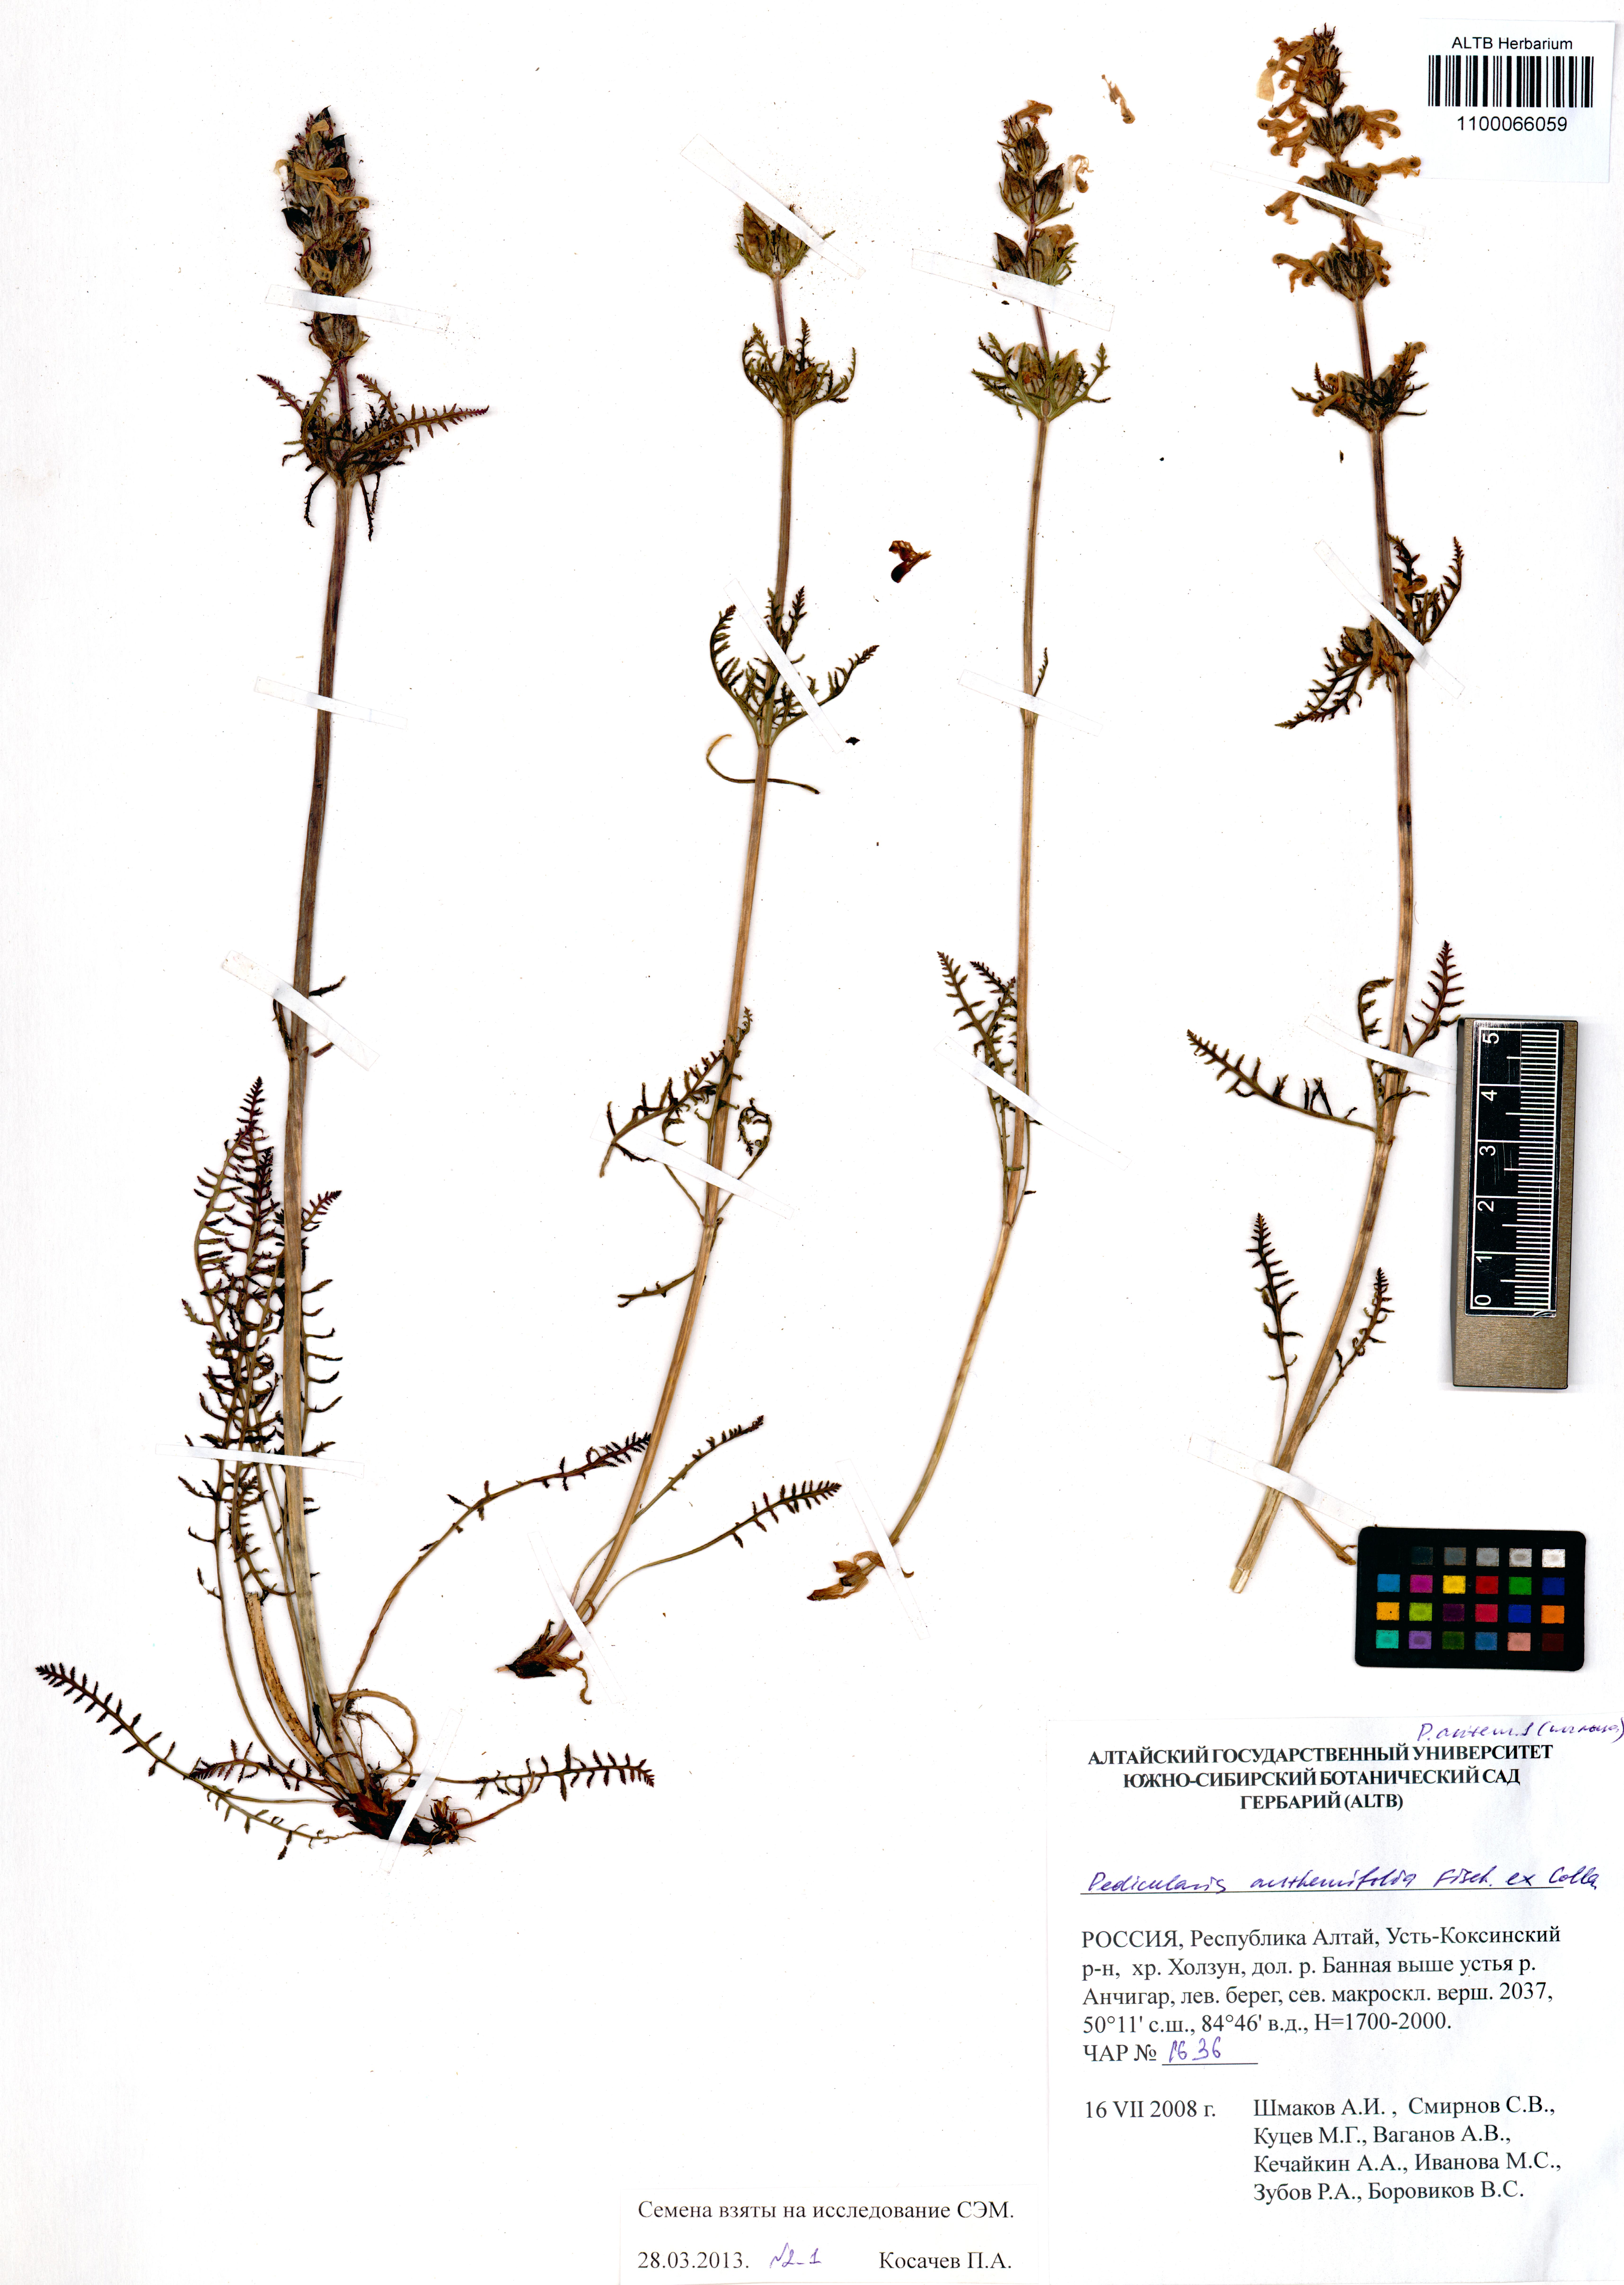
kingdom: Plantae
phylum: Tracheophyta
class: Magnoliopsida
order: Lamiales
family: Orobanchaceae
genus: Pedicularis
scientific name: Pedicularis anthemifolia
